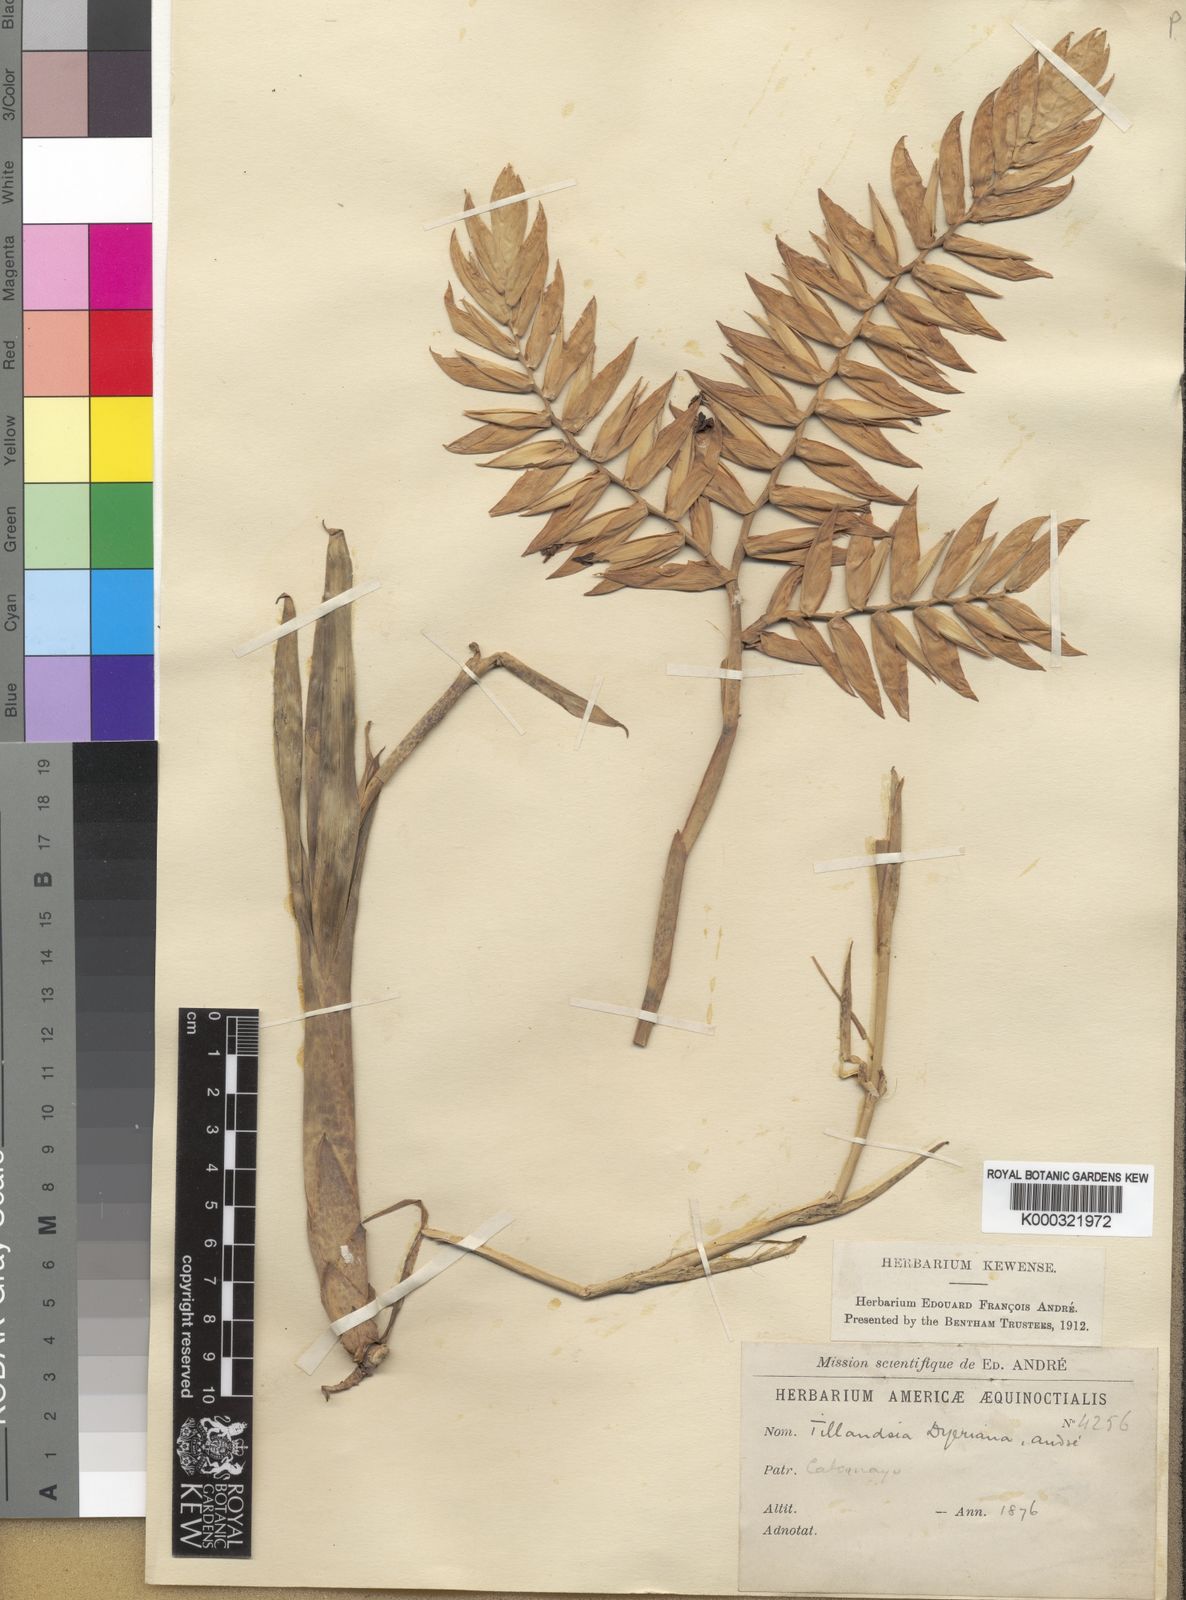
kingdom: Plantae
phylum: Tracheophyta
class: Liliopsida
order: Poales
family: Bromeliaceae
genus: Tillandsia
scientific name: Tillandsia
